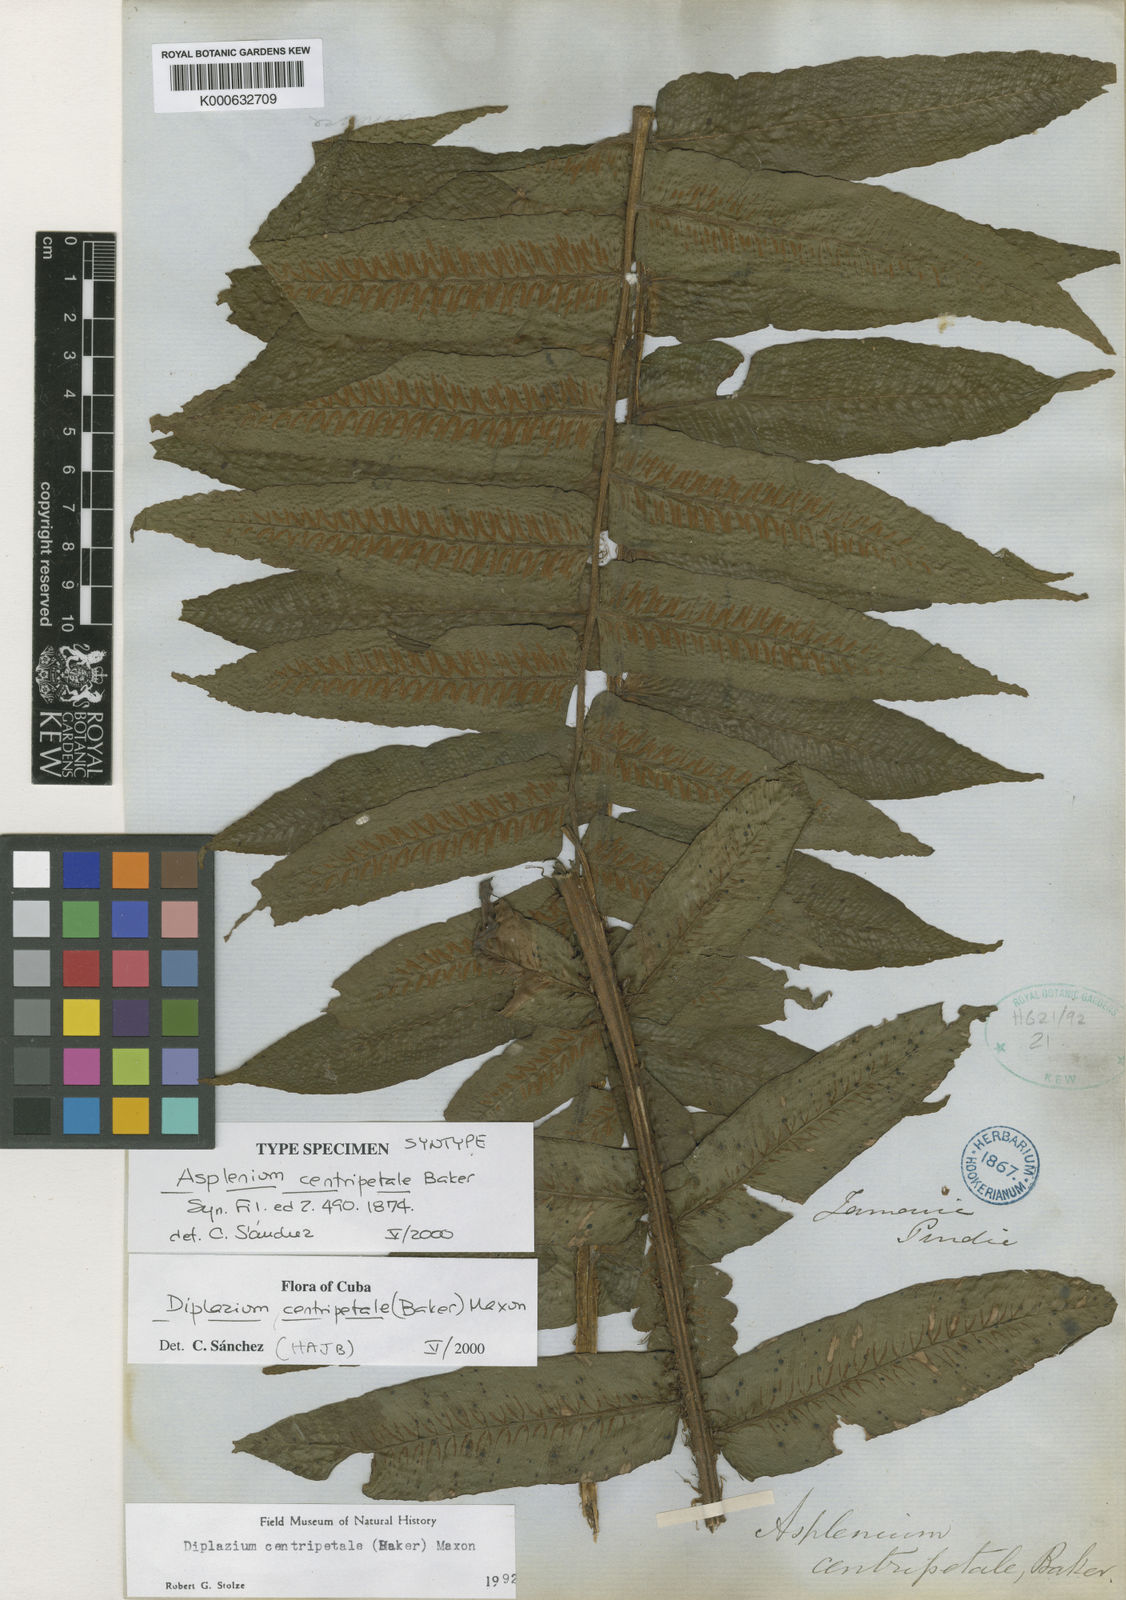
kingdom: Plantae
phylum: Tracheophyta
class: Polypodiopsida
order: Polypodiales
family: Athyriaceae
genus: Diplazium
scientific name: Diplazium centripetale
